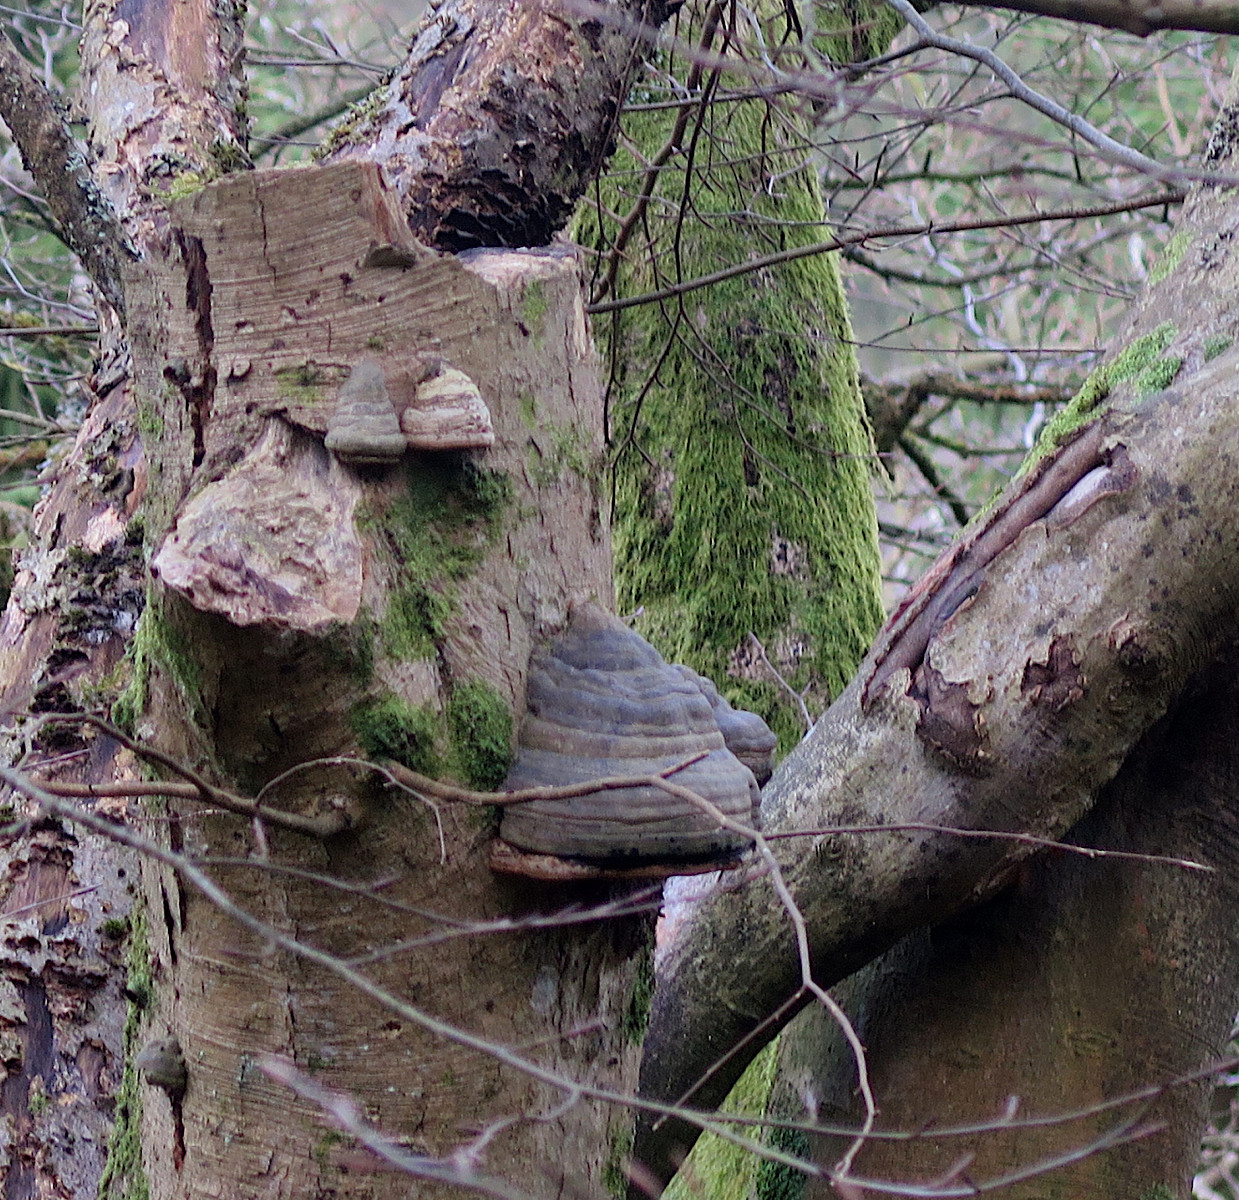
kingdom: Fungi
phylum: Basidiomycota
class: Agaricomycetes
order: Polyporales
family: Polyporaceae
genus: Fomes
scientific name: Fomes fomentarius
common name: tøndersvamp
